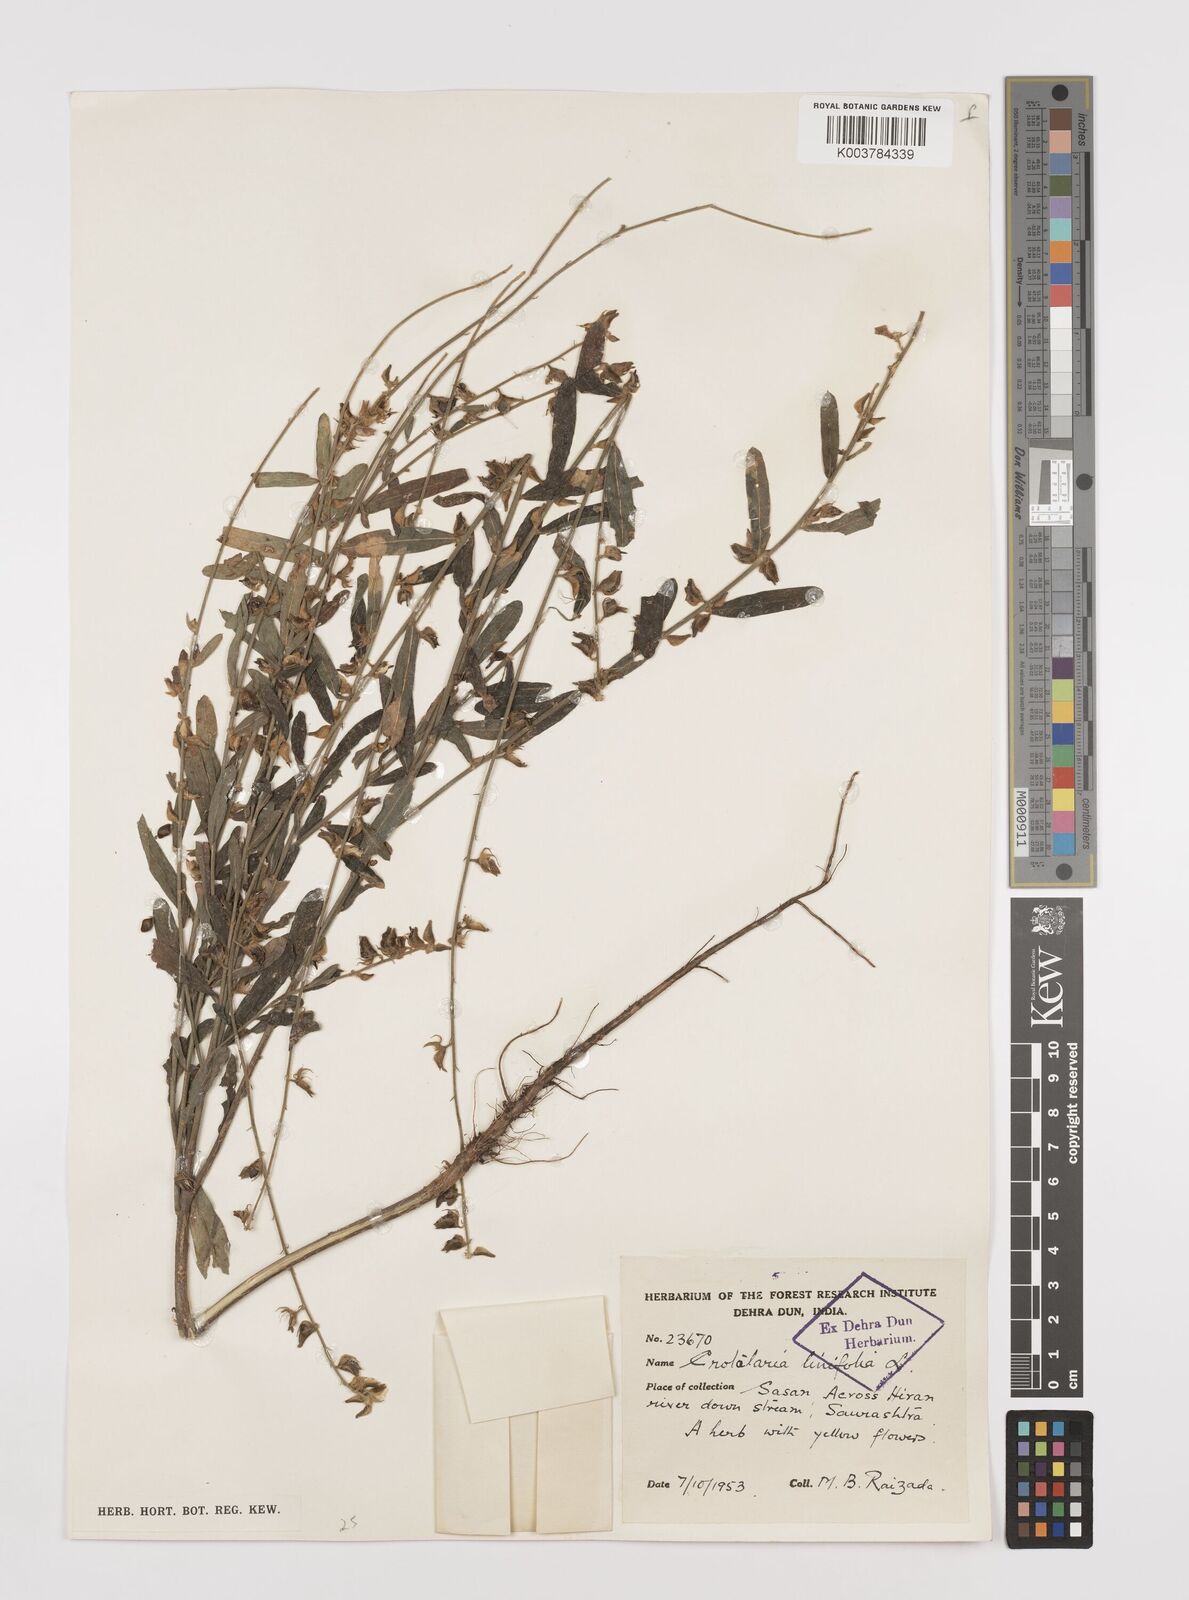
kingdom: Plantae
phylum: Tracheophyta
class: Magnoliopsida
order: Fabales
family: Fabaceae
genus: Crotalaria
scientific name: Crotalaria linifolia
